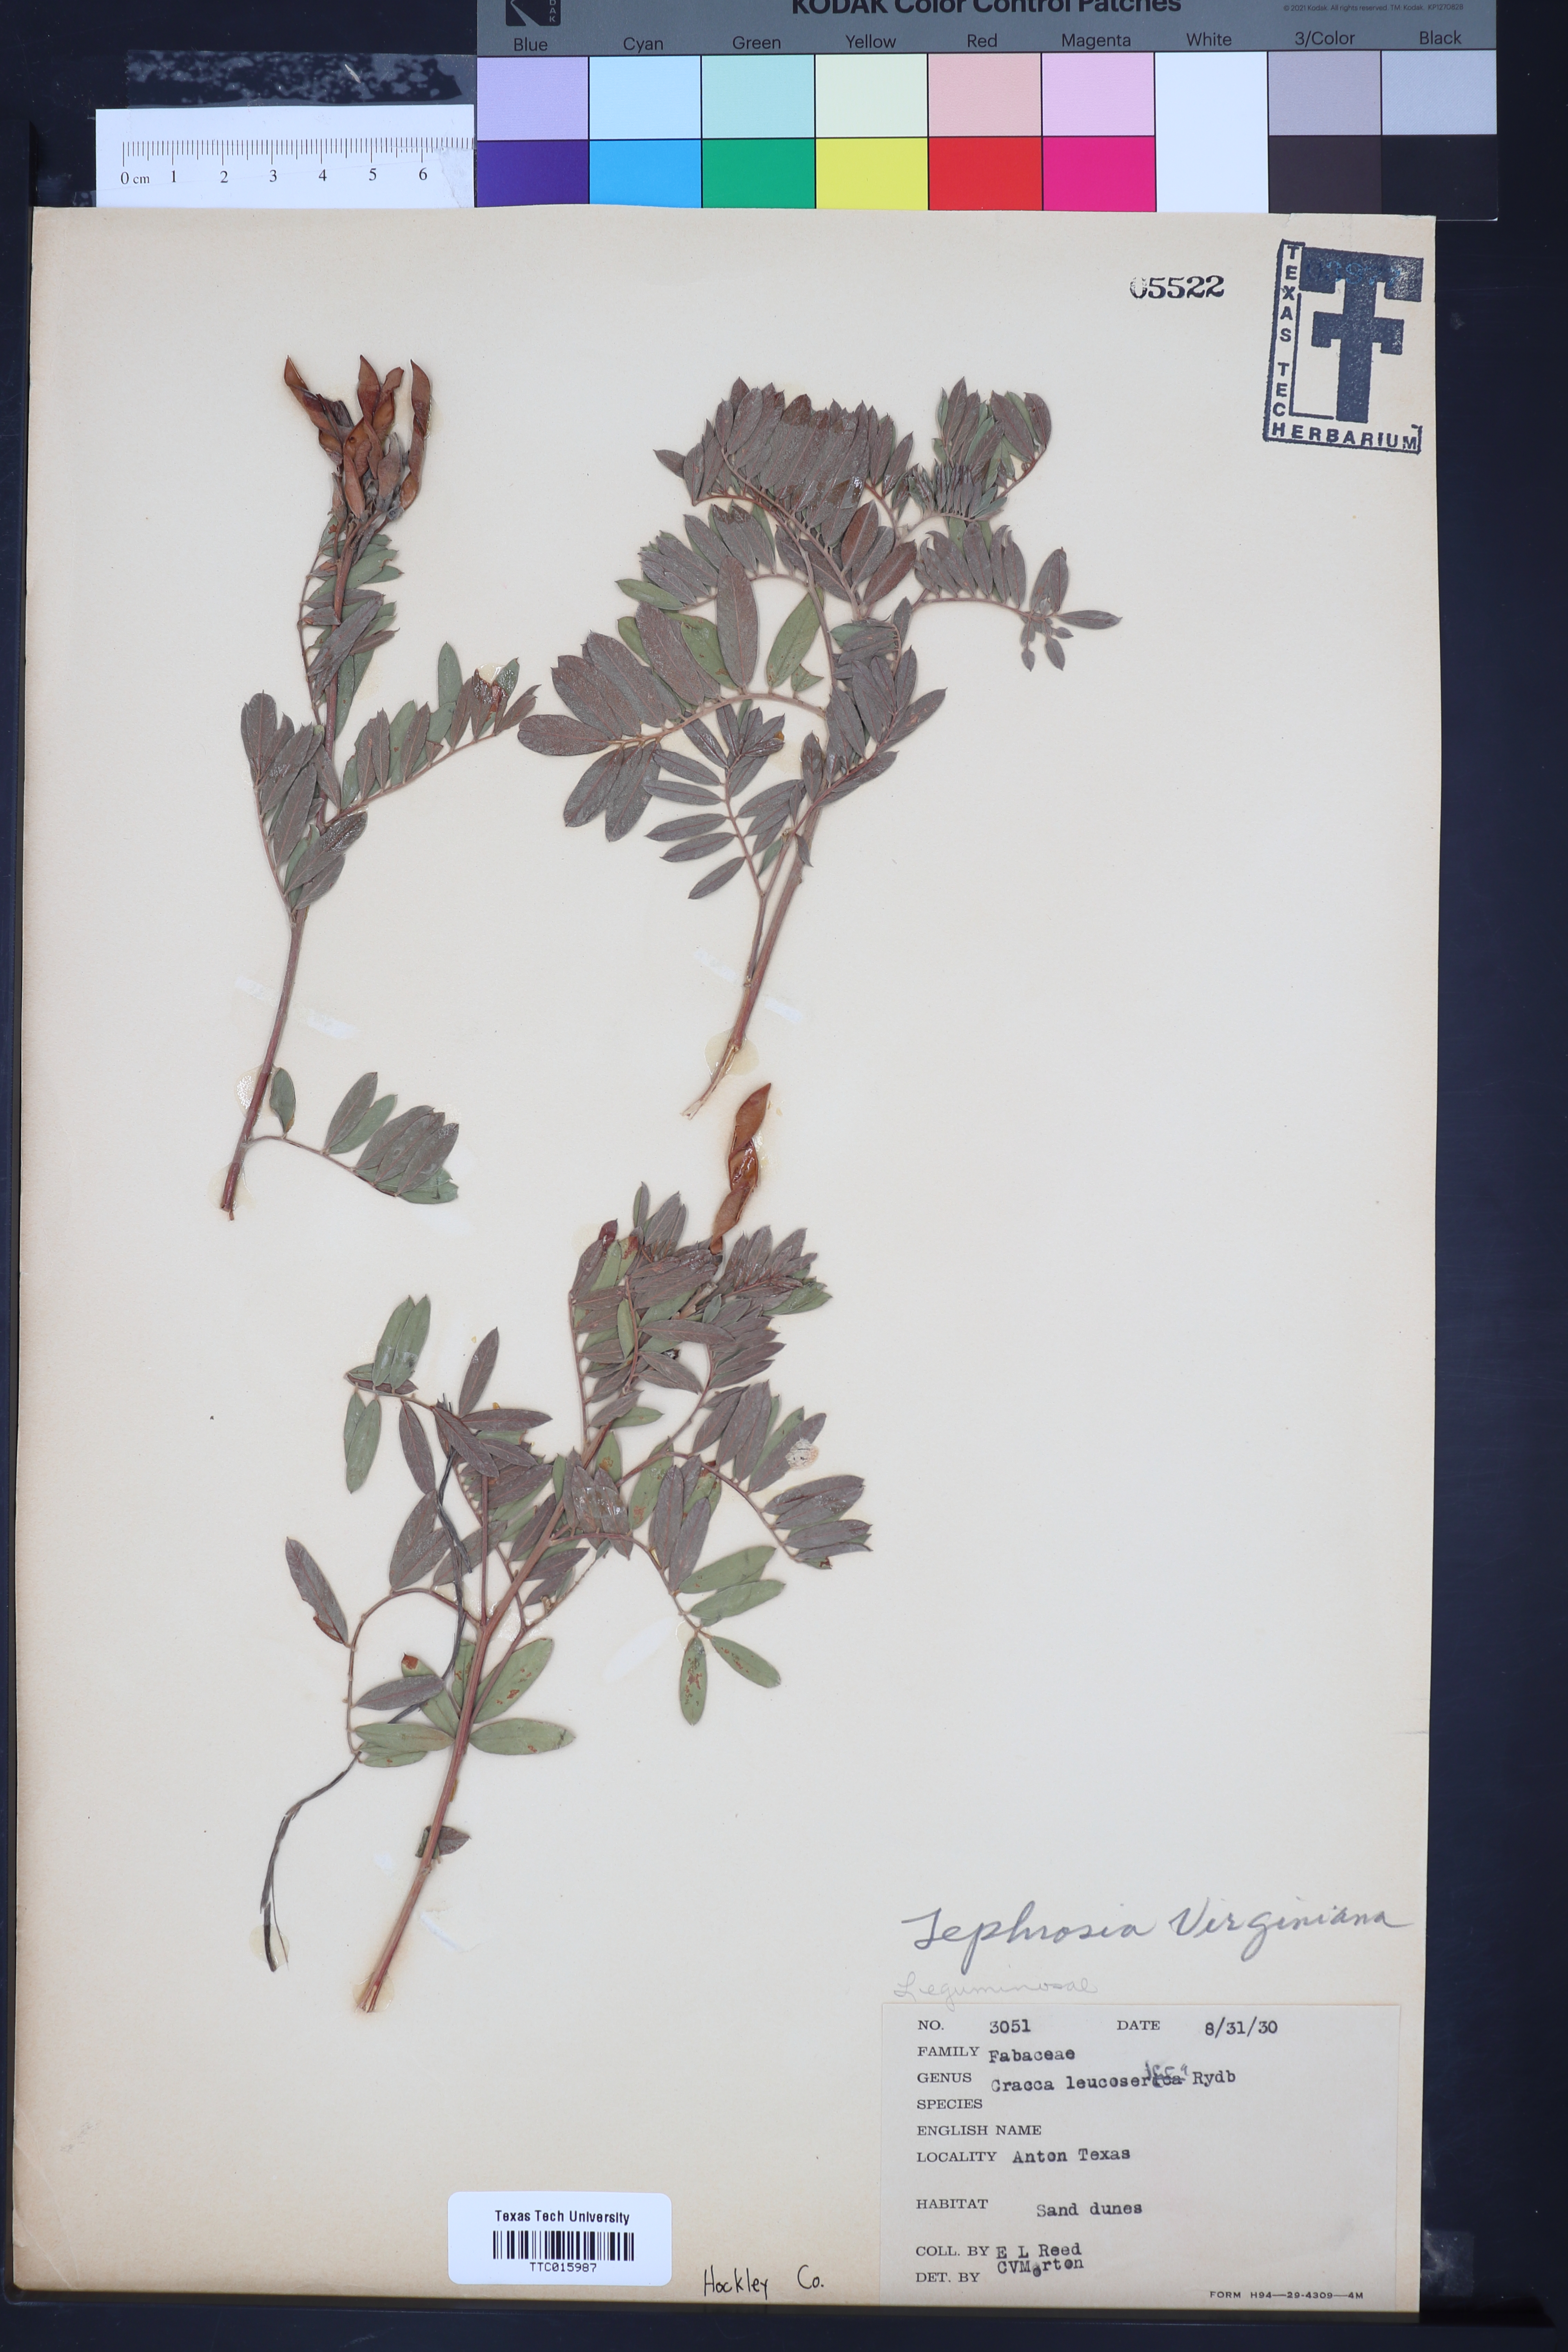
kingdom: Plantae
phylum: Tracheophyta
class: Magnoliopsida
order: Fabales
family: Fabaceae
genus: Tephrosia
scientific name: Tephrosia virginiana
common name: Rabbit-pea
